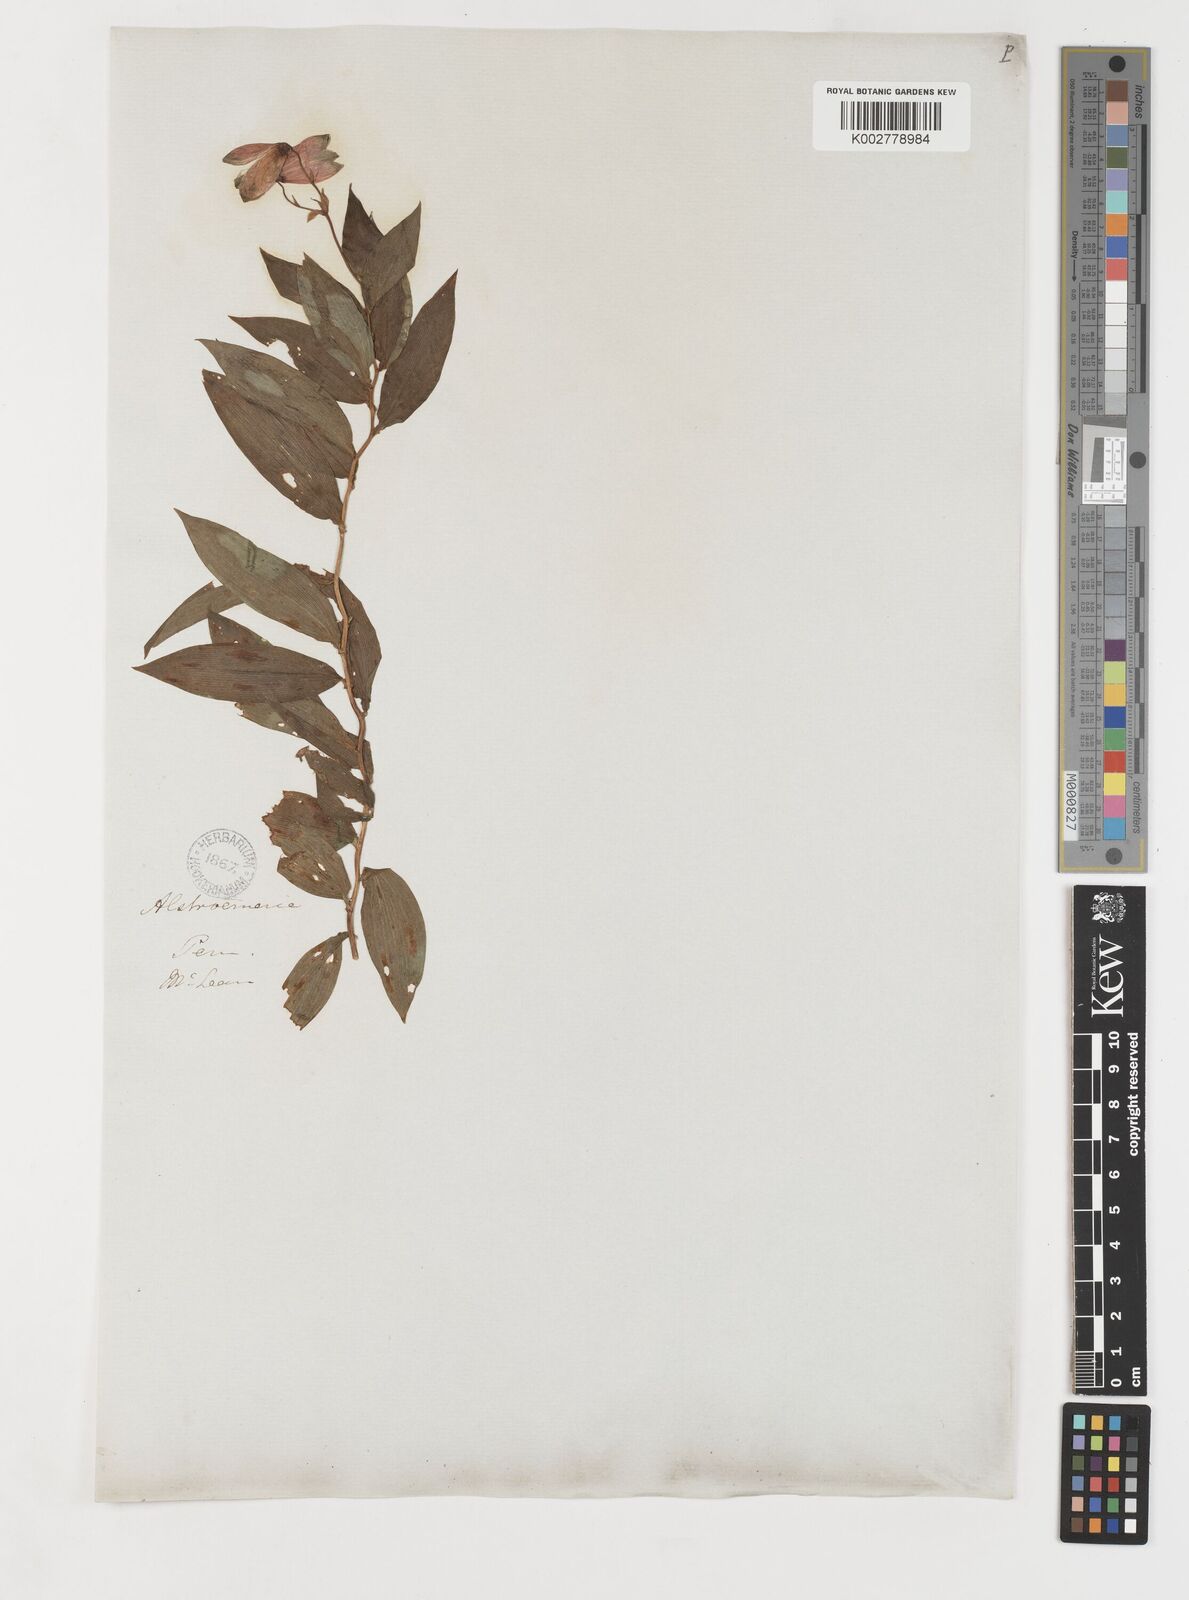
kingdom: Plantae
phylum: Tracheophyta
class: Liliopsida
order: Liliales
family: Alstroemeriaceae
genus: Bomarea
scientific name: Bomarea ovata
